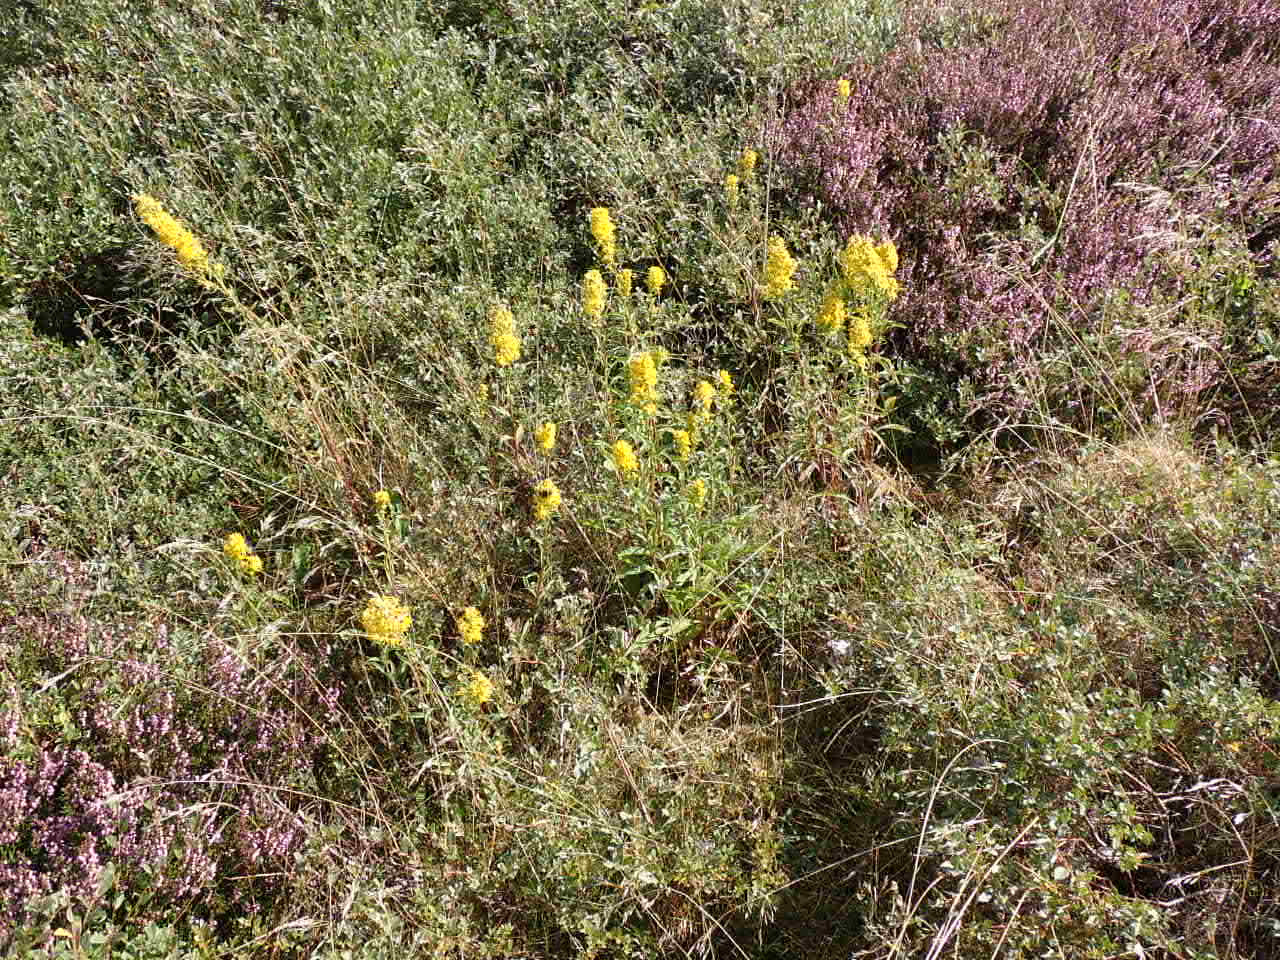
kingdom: Plantae
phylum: Tracheophyta
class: Magnoliopsida
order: Asterales
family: Asteraceae
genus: Solidago
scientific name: Solidago virgaurea
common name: Almindelig gyldenris
